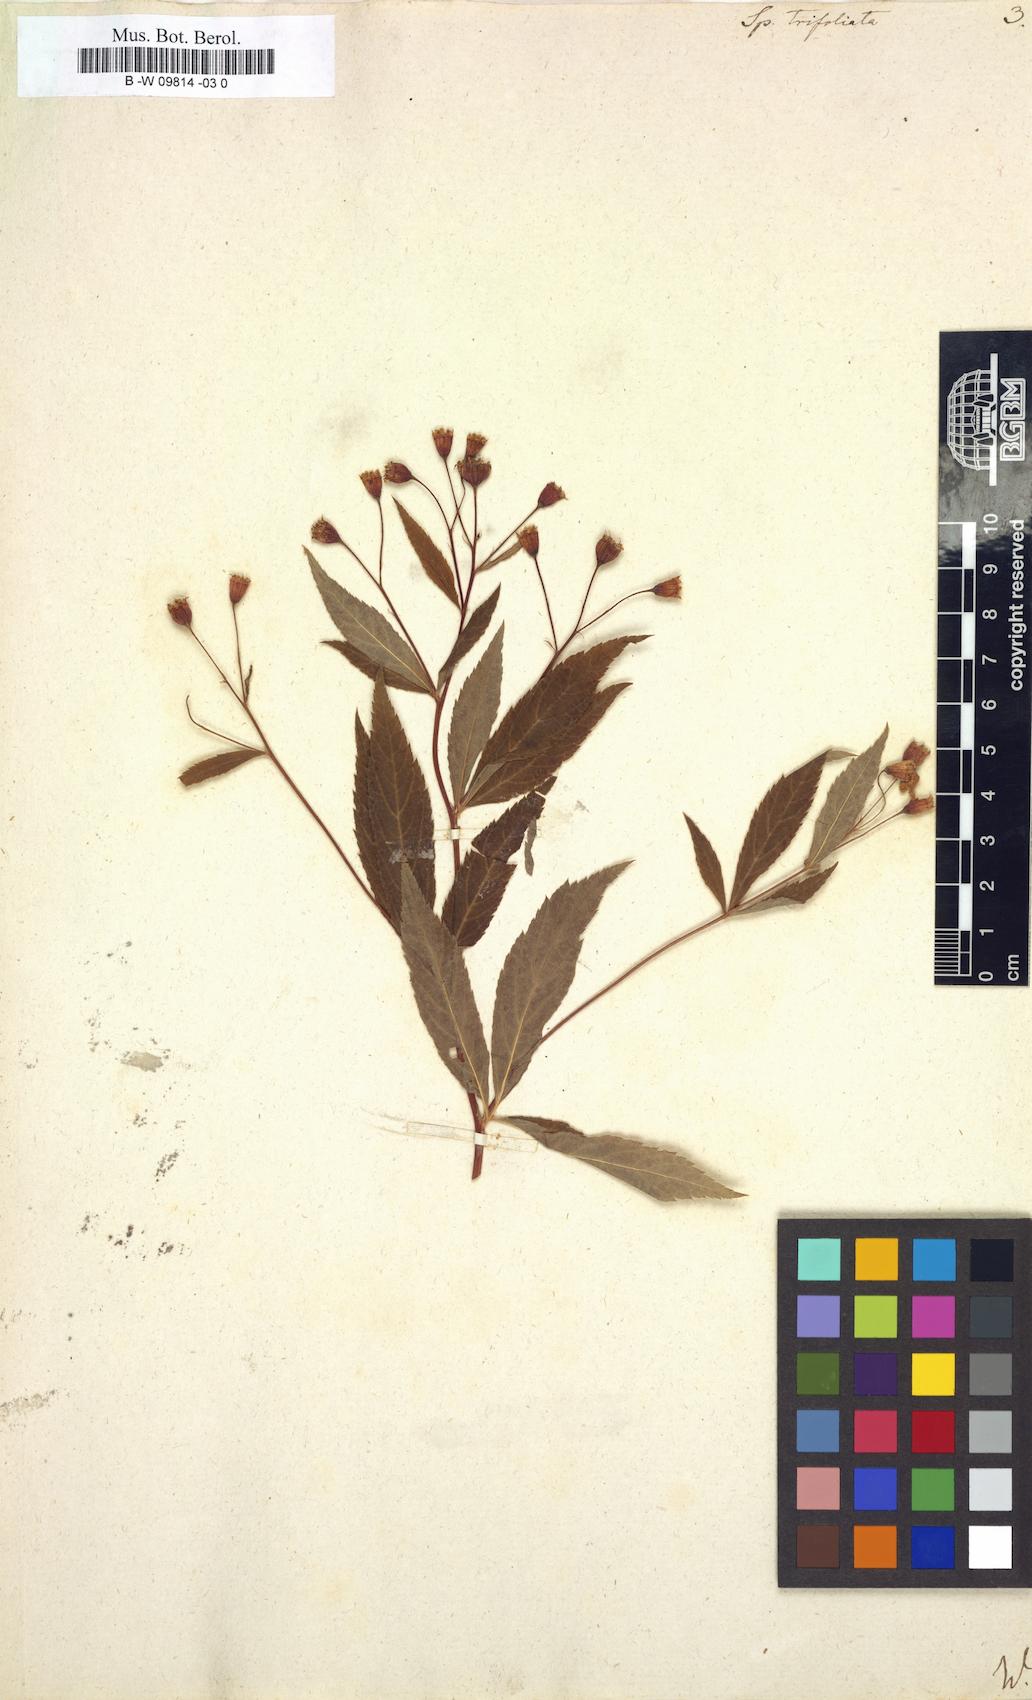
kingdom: Plantae
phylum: Tracheophyta
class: Magnoliopsida
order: Rosales
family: Rosaceae
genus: Gillenia
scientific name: Gillenia trifoliata
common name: Bowman's-root
